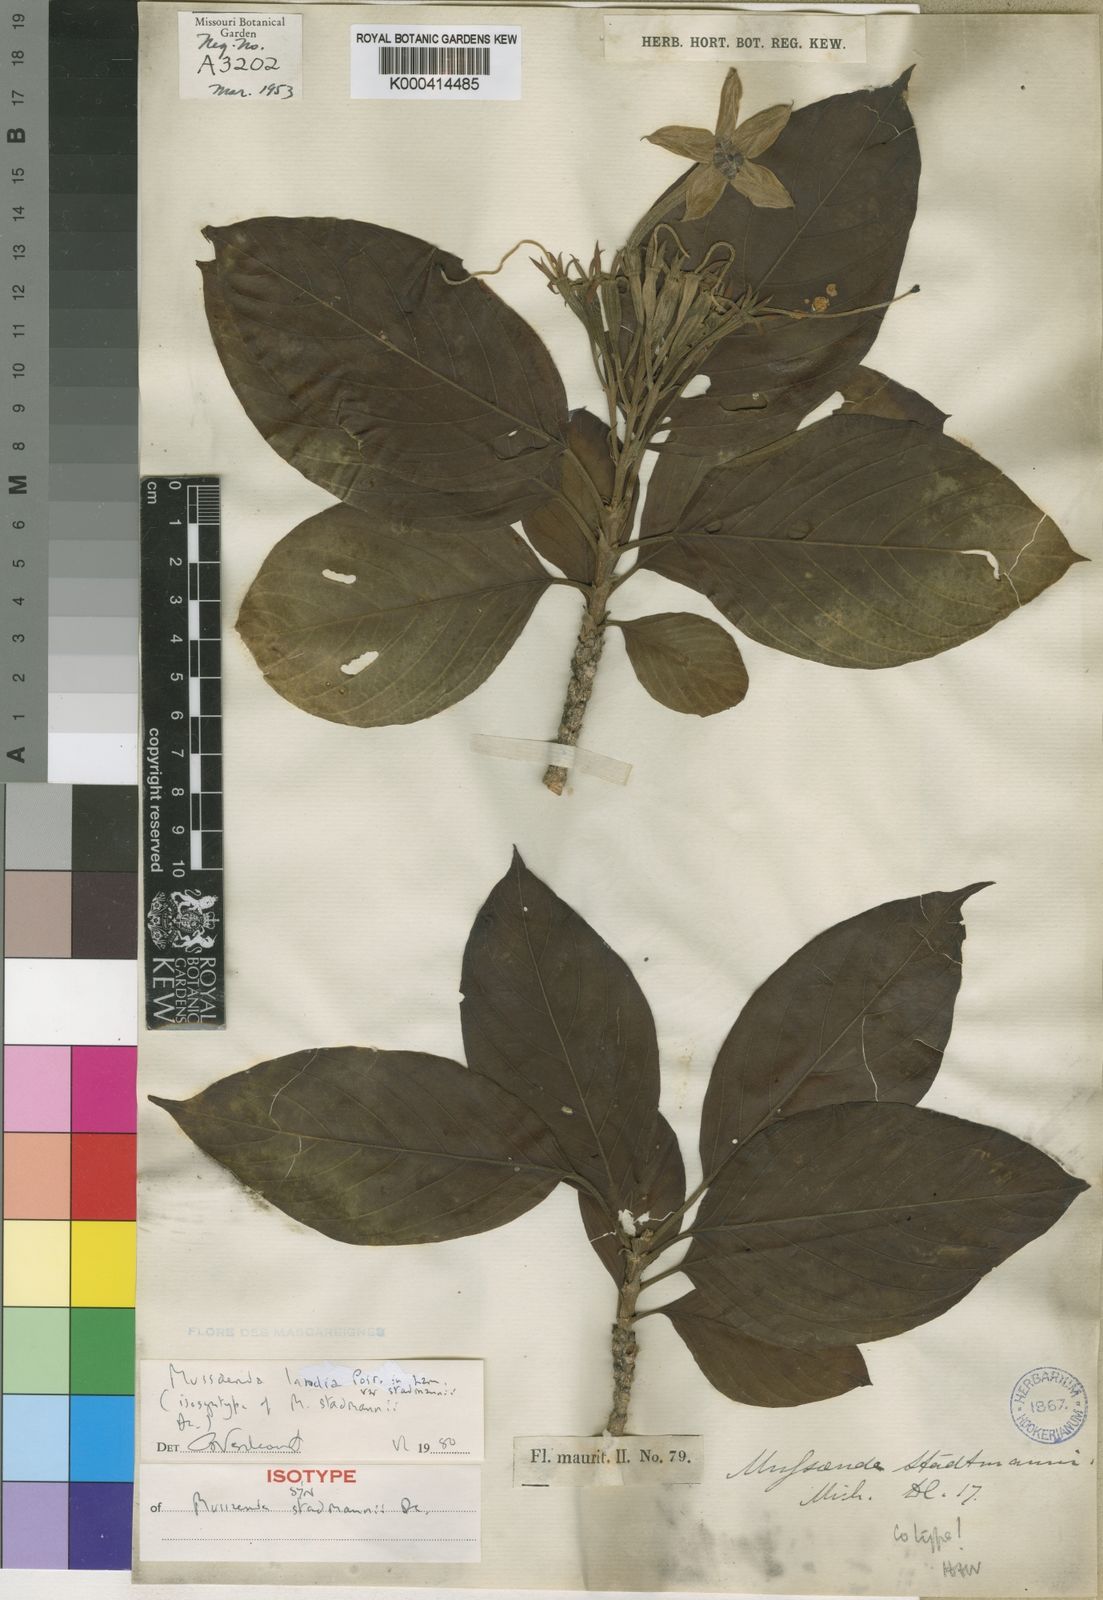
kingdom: Plantae
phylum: Tracheophyta
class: Magnoliopsida
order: Gentianales
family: Rubiaceae
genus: Bremeria
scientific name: Bremeria landia
